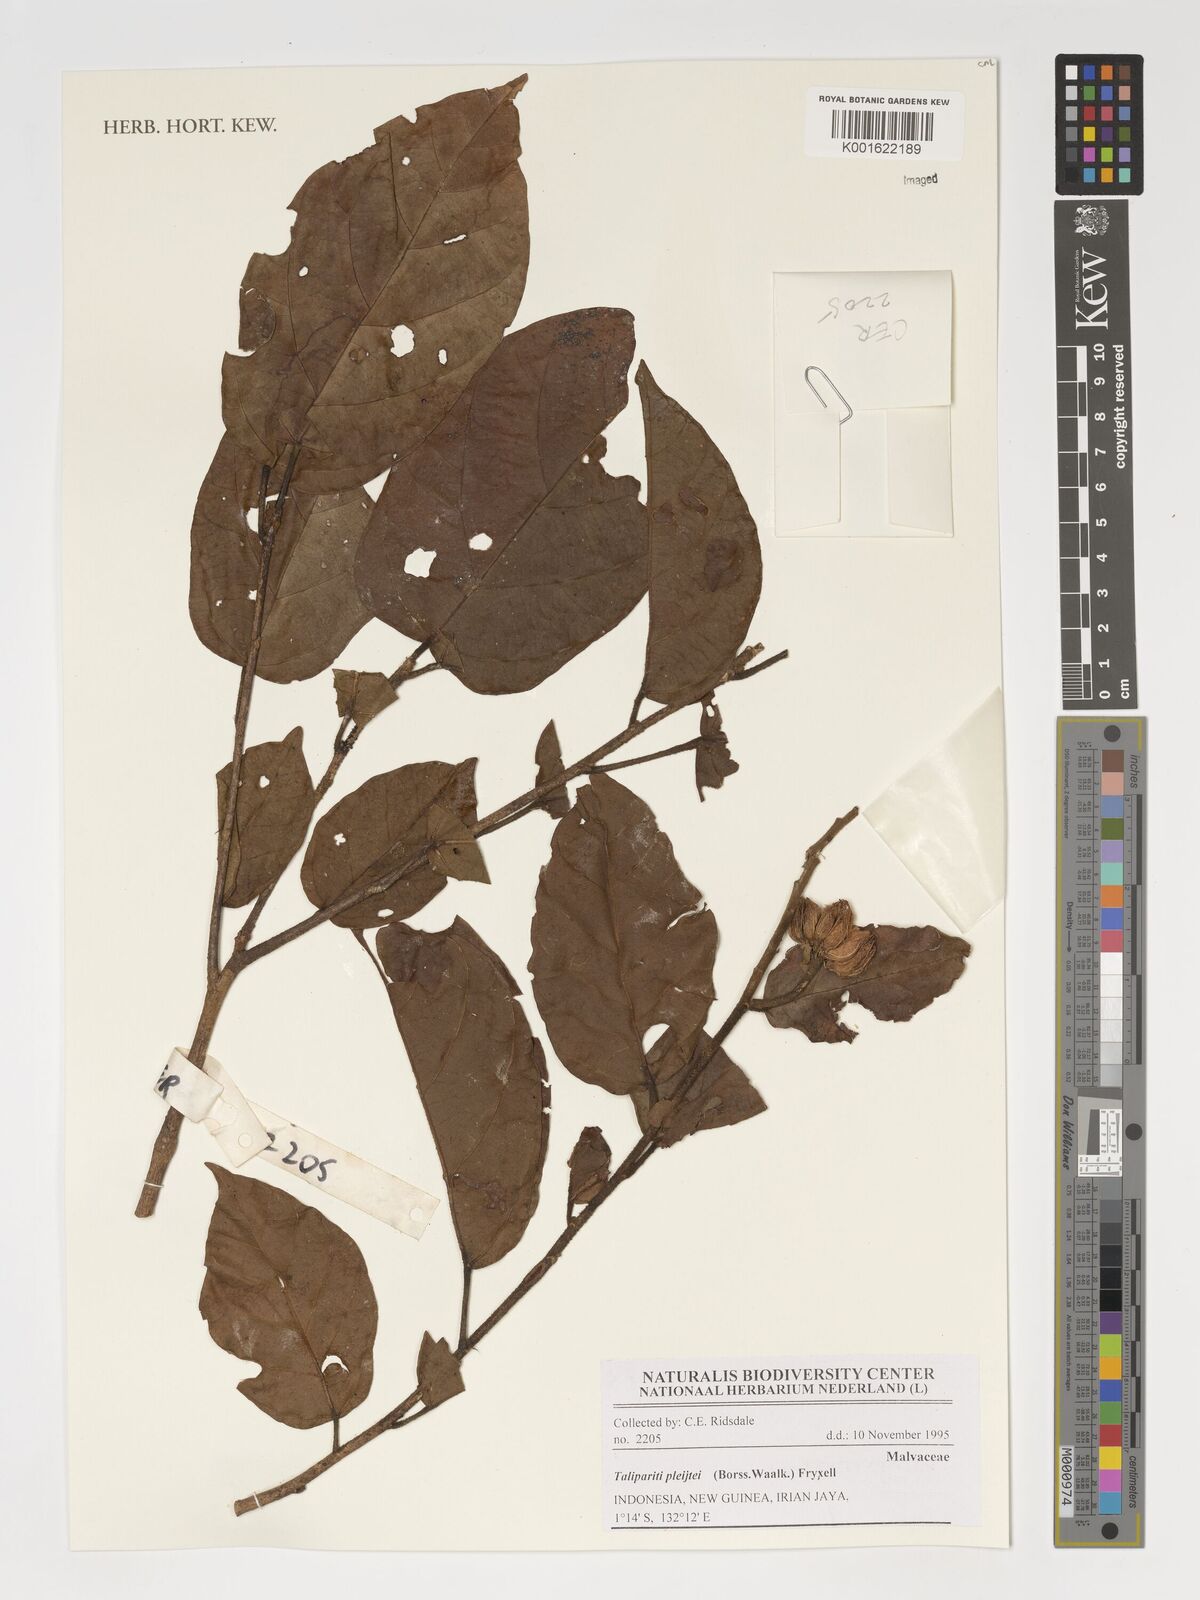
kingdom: Plantae
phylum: Tracheophyta
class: Magnoliopsida
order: Malvales
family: Malvaceae
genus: Talipariti
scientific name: Talipariti pleijtei
